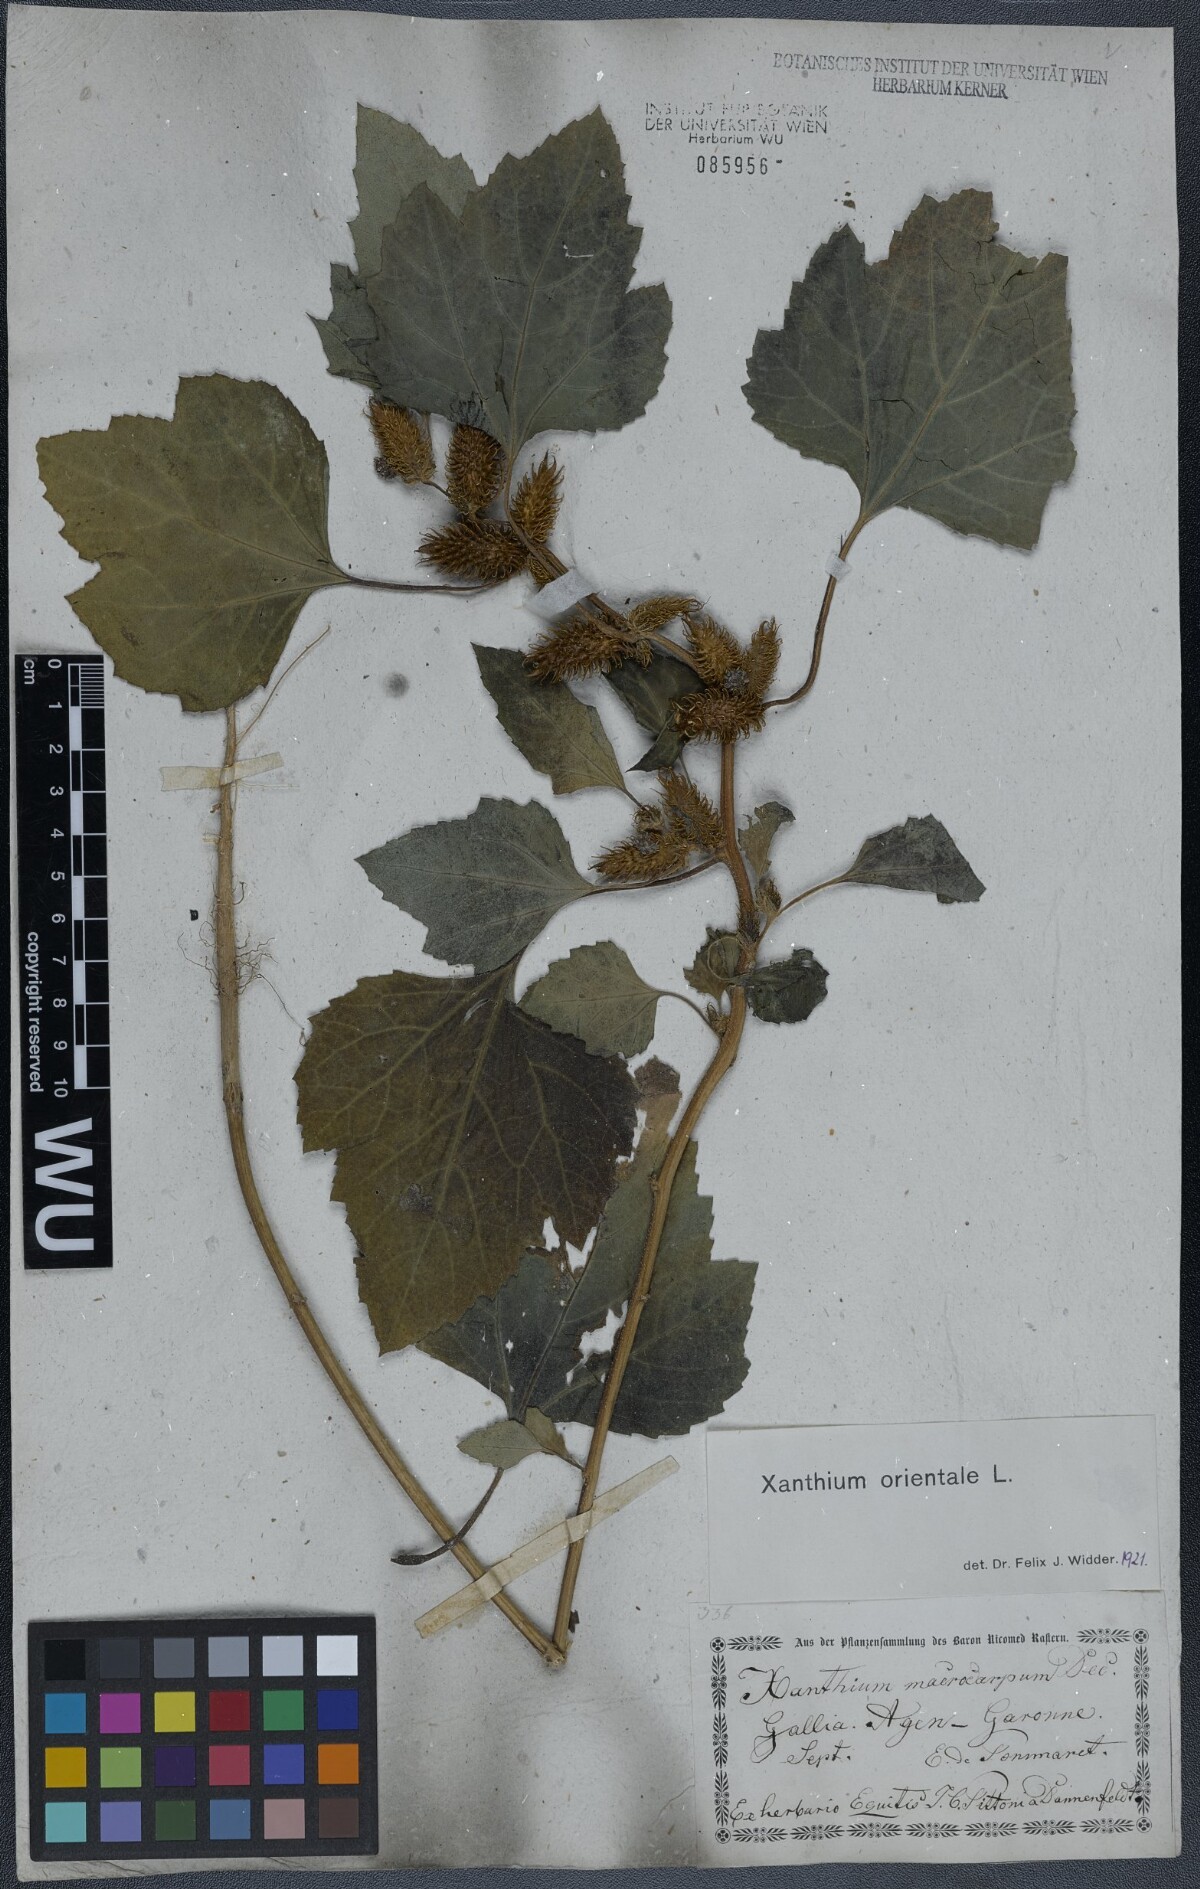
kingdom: Plantae
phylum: Tracheophyta
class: Magnoliopsida
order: Asterales
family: Asteraceae
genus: Xanthium
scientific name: Xanthium orientale
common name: Californian burr
